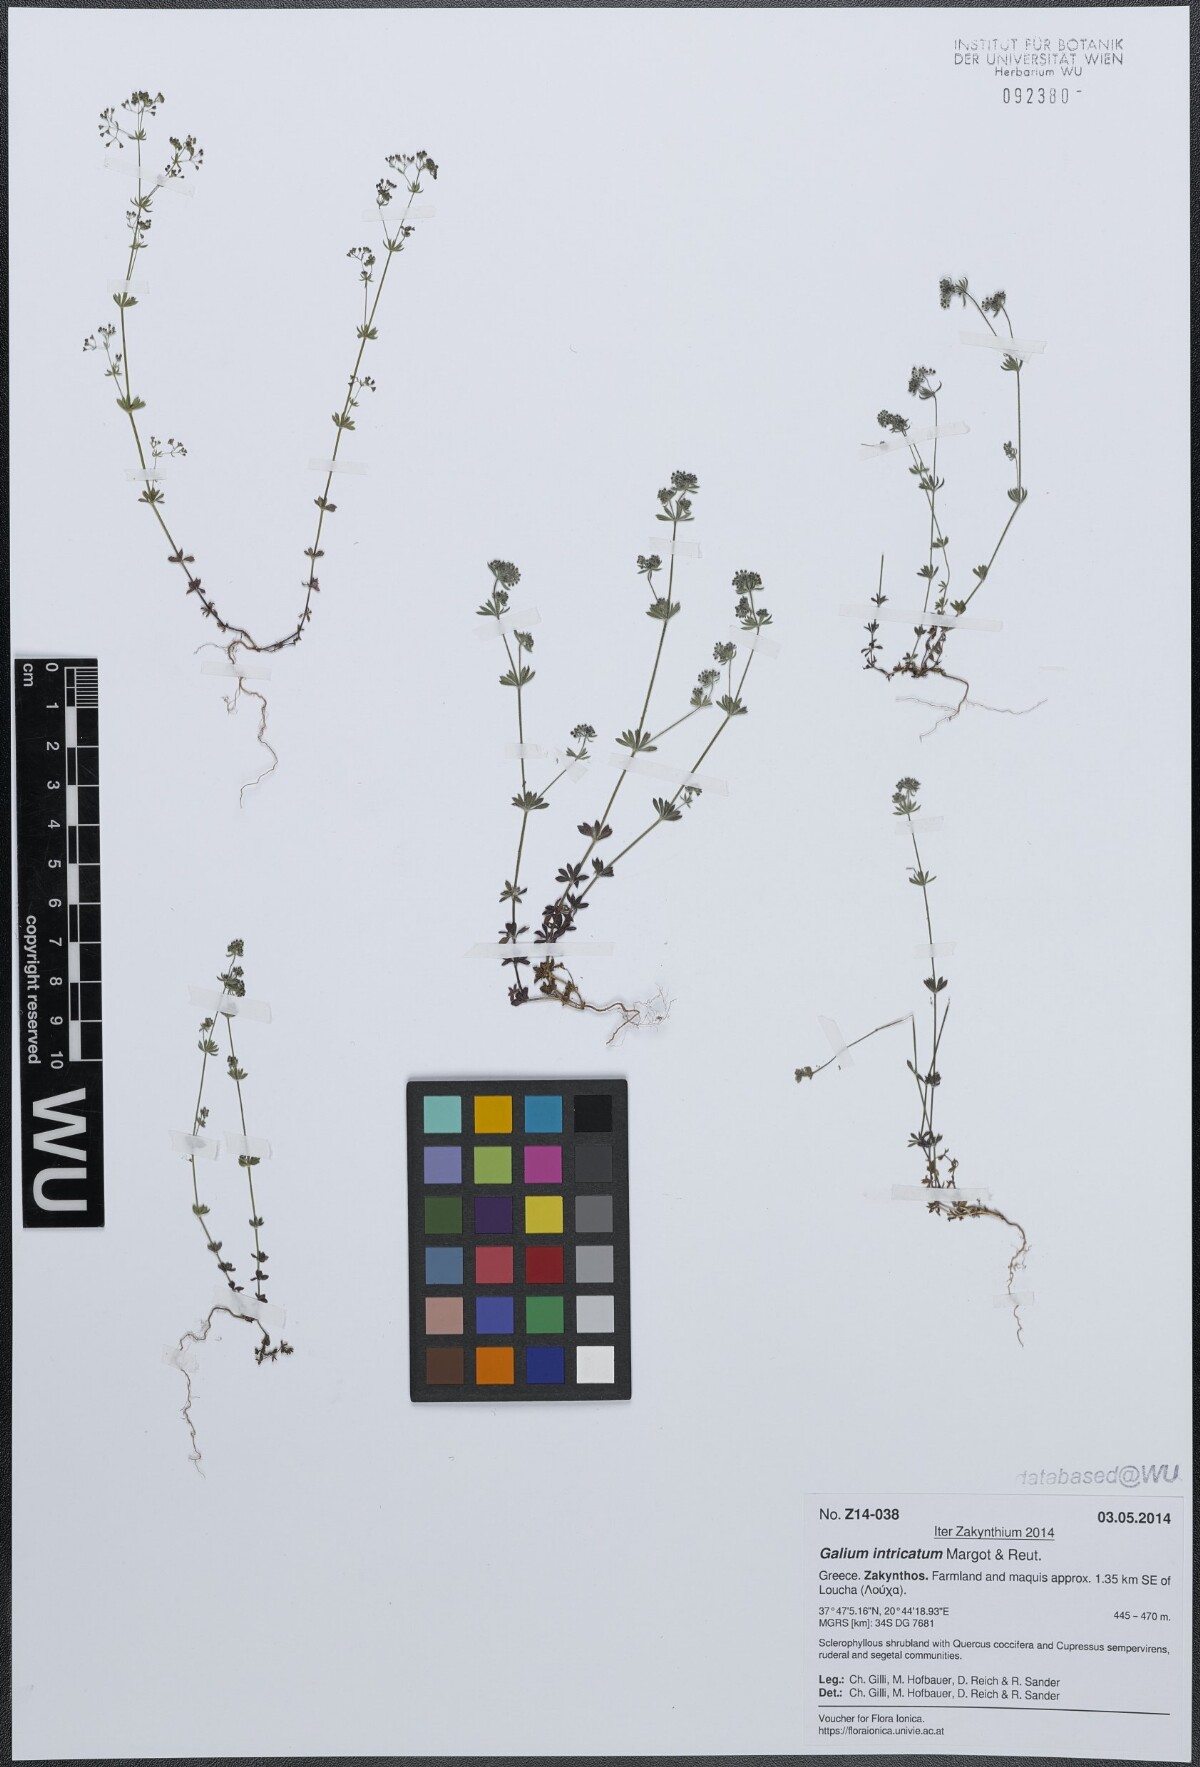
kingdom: Plantae
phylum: Tracheophyta
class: Magnoliopsida
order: Gentianales
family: Rubiaceae
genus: Galium
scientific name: Galium intricatum
